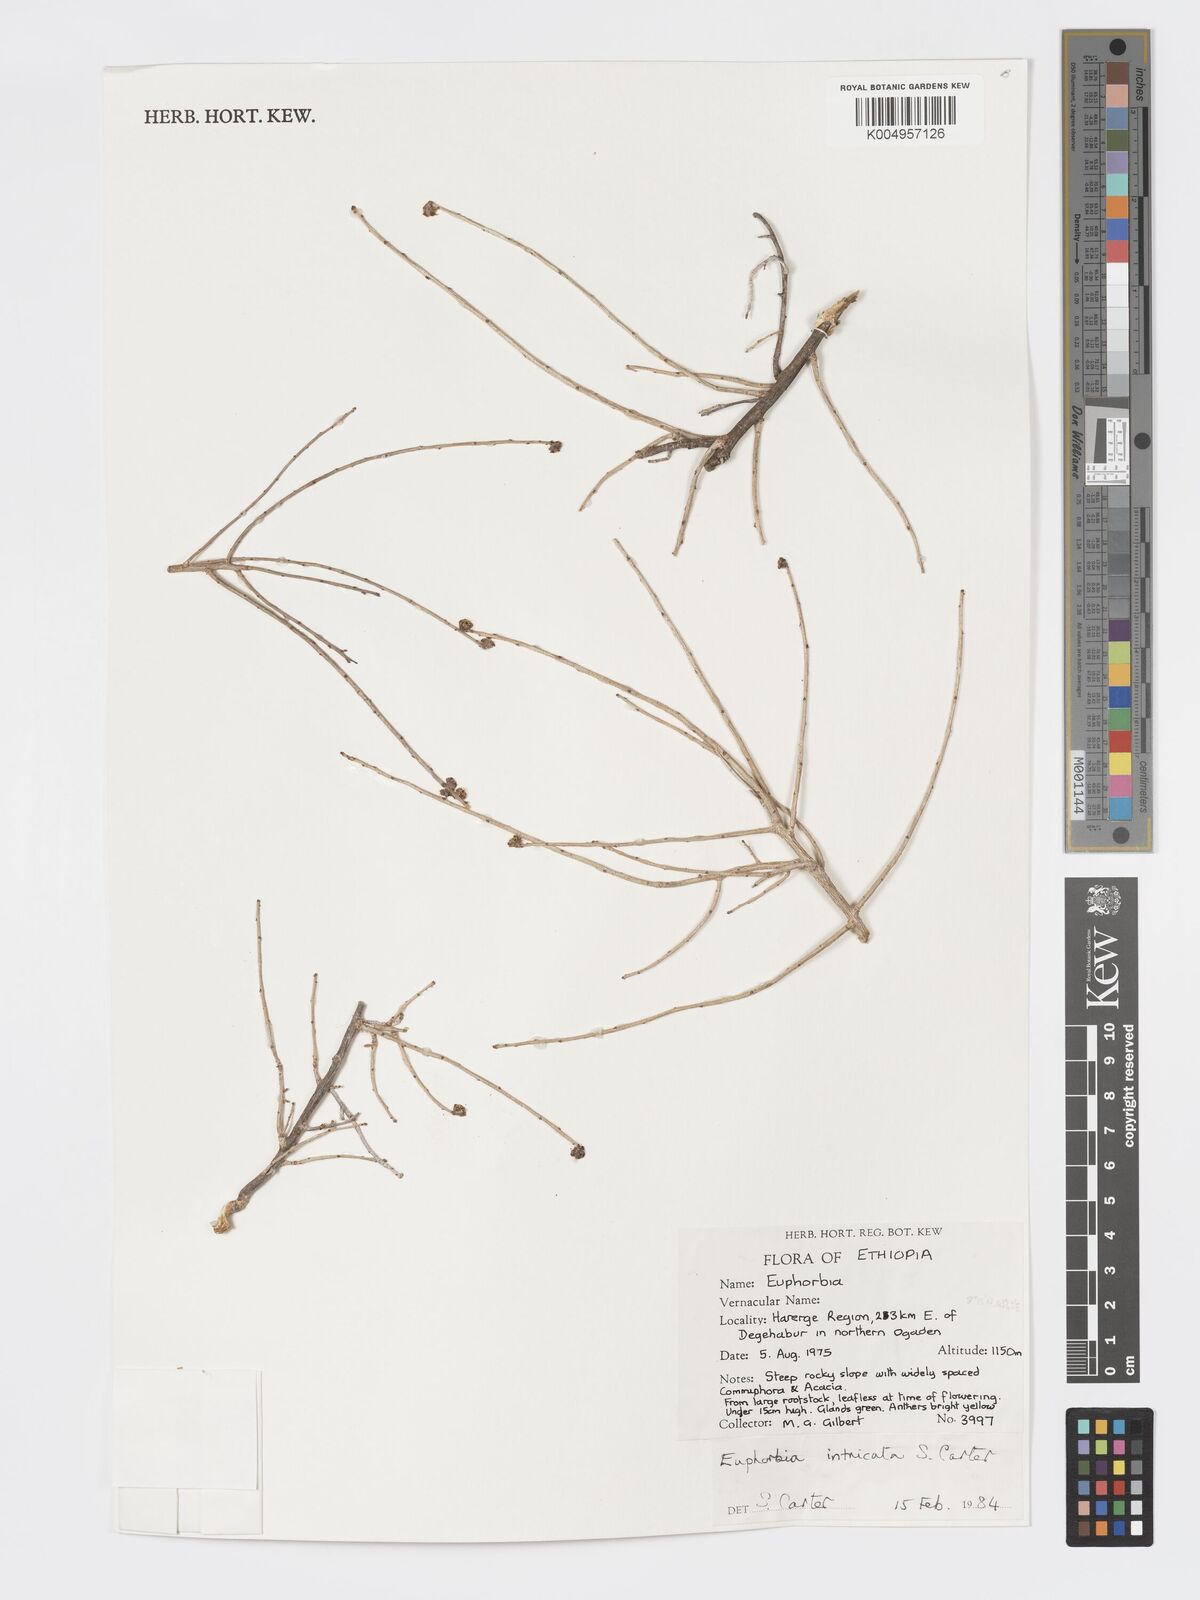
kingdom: Plantae
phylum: Tracheophyta
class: Magnoliopsida
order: Malpighiales
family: Euphorbiaceae
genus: Euphorbia
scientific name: Euphorbia intricata
